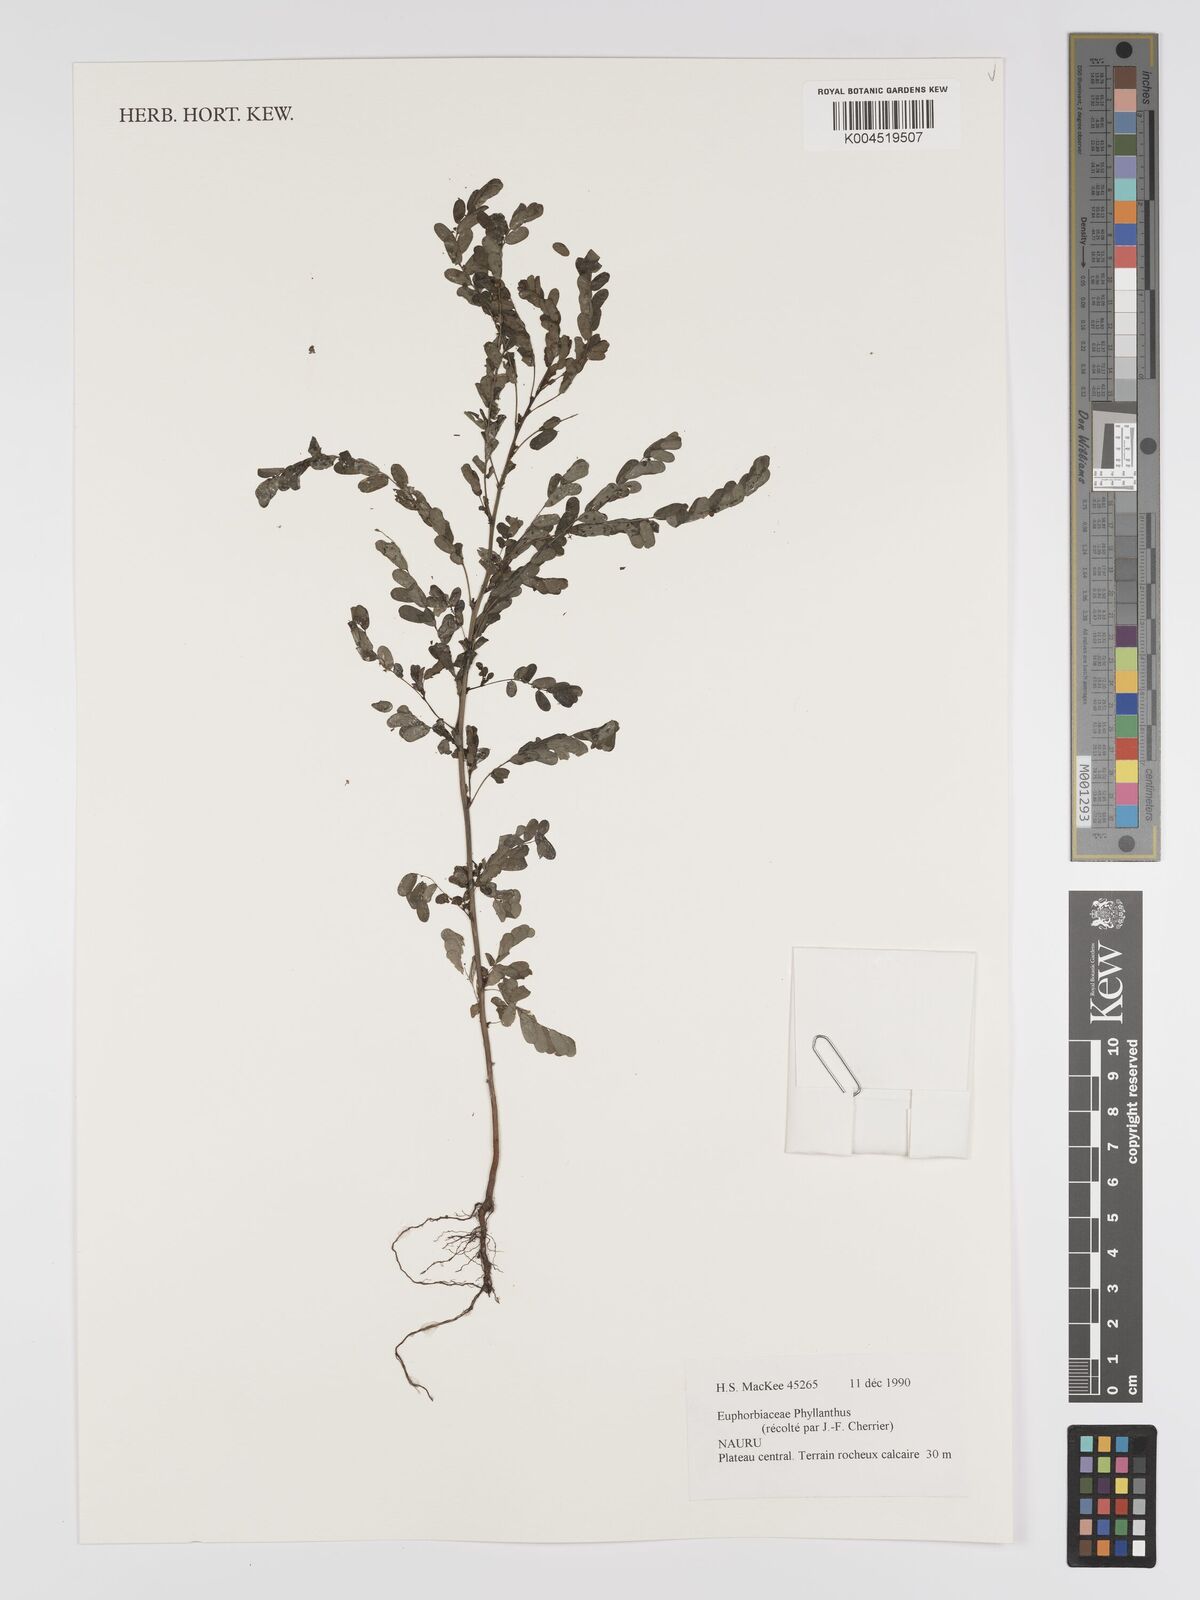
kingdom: Plantae
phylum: Tracheophyta
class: Magnoliopsida
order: Malpighiales
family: Phyllanthaceae
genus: Phyllanthus
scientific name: Phyllanthus
